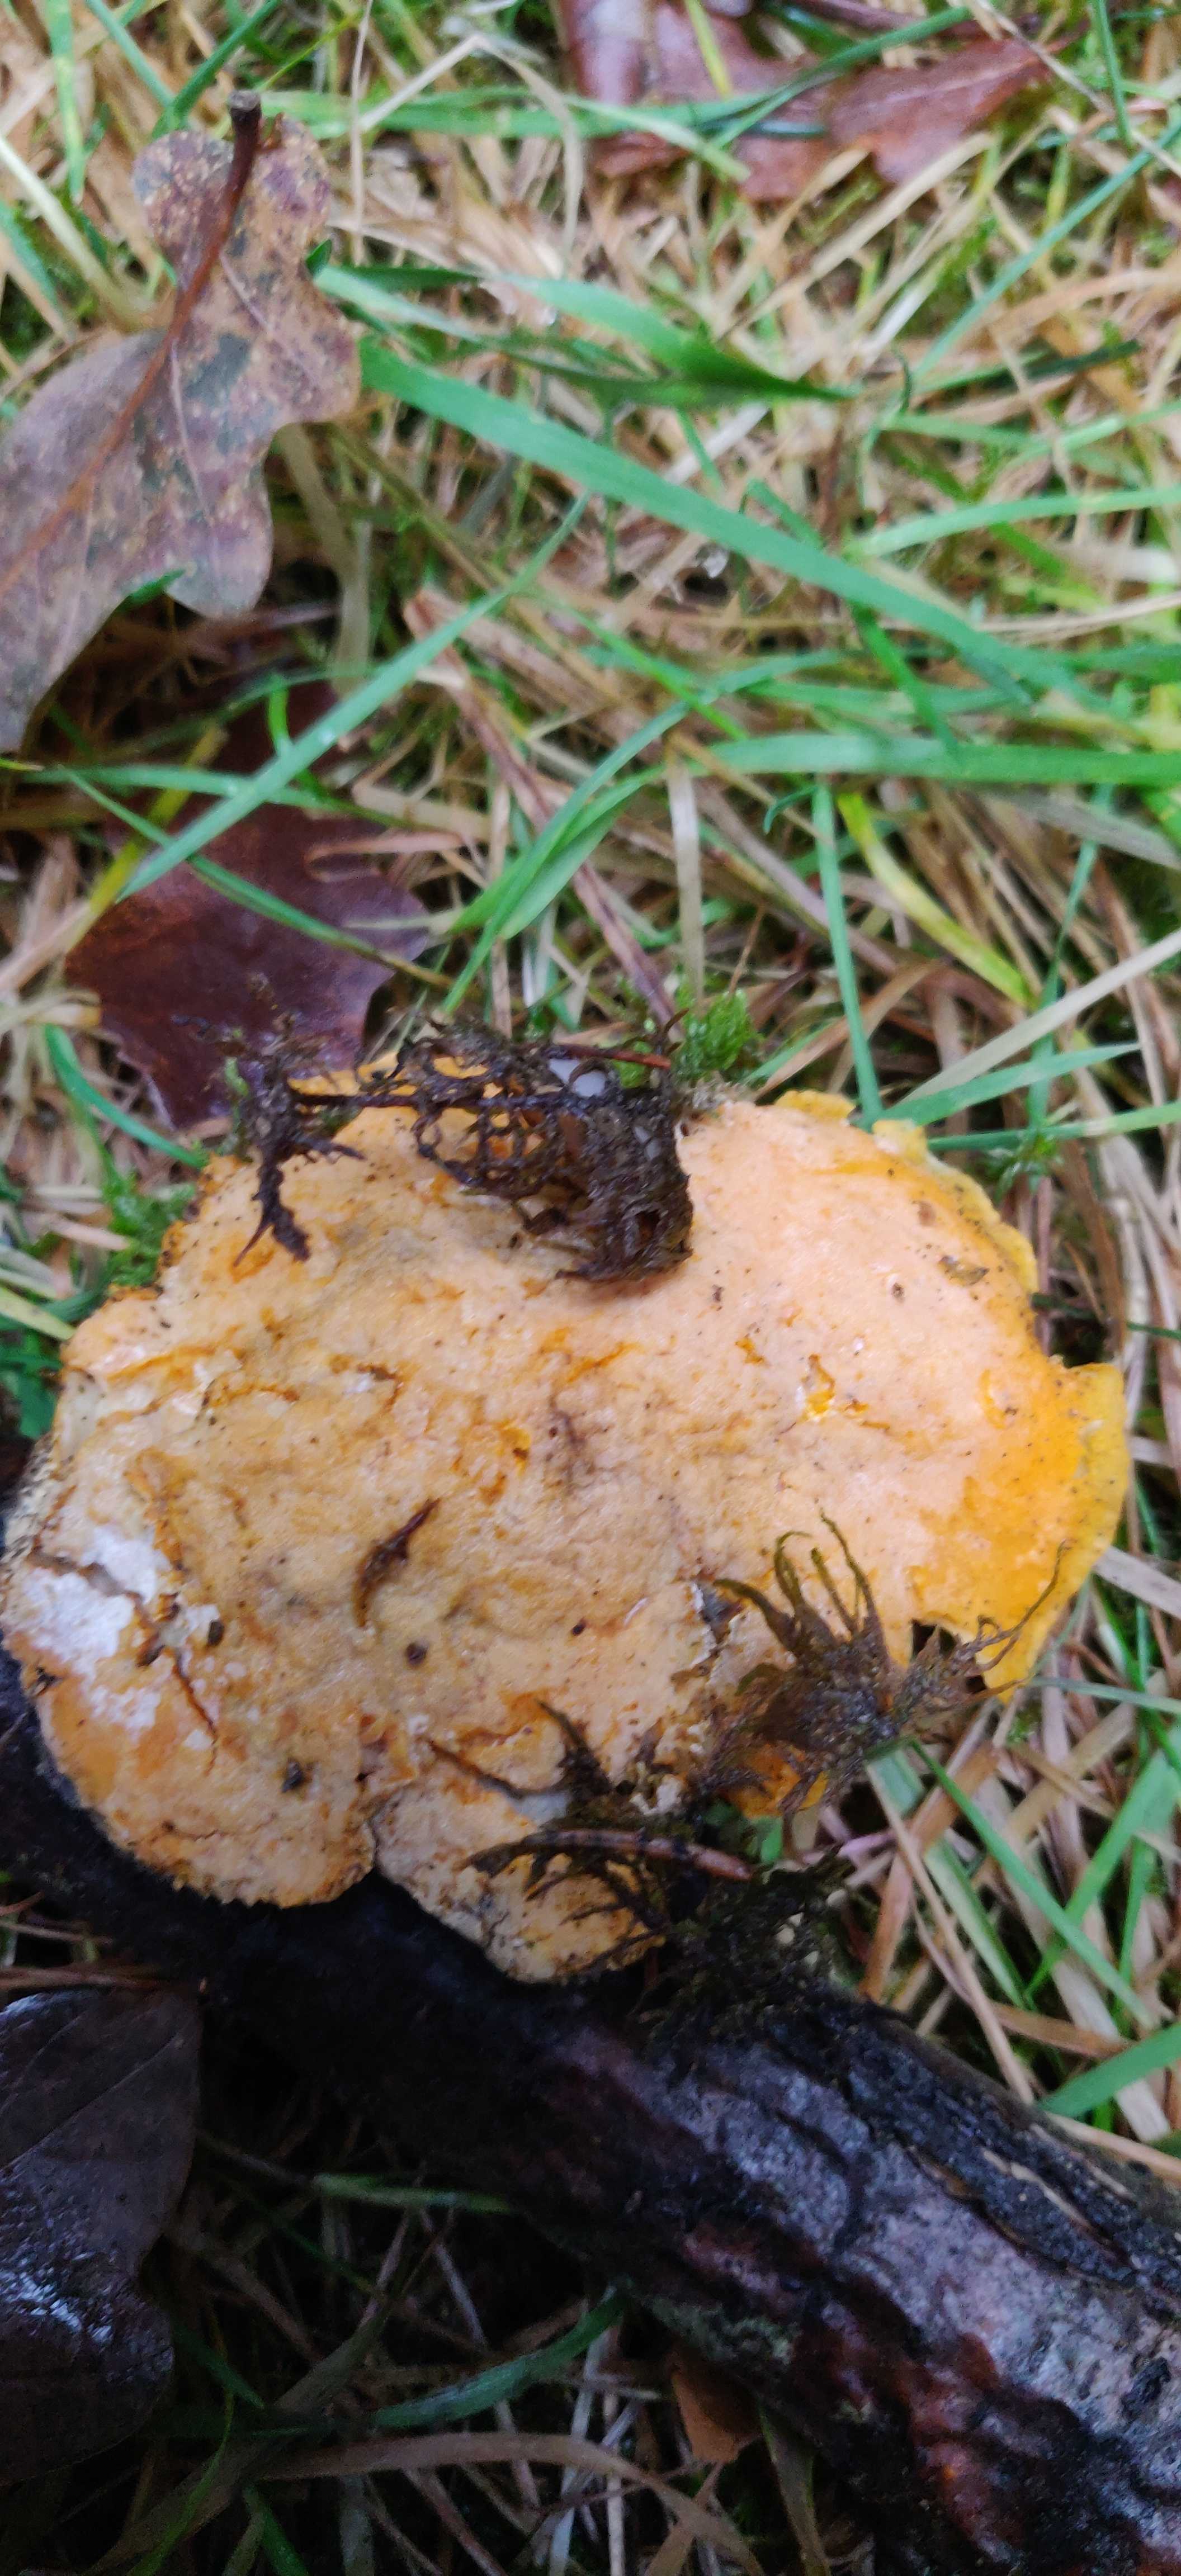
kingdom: Fungi
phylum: Ascomycota
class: Sordariomycetes
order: Hypocreales
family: Hypocreaceae
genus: Protocrea
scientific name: Protocrea pallida
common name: bleg kødkerne
